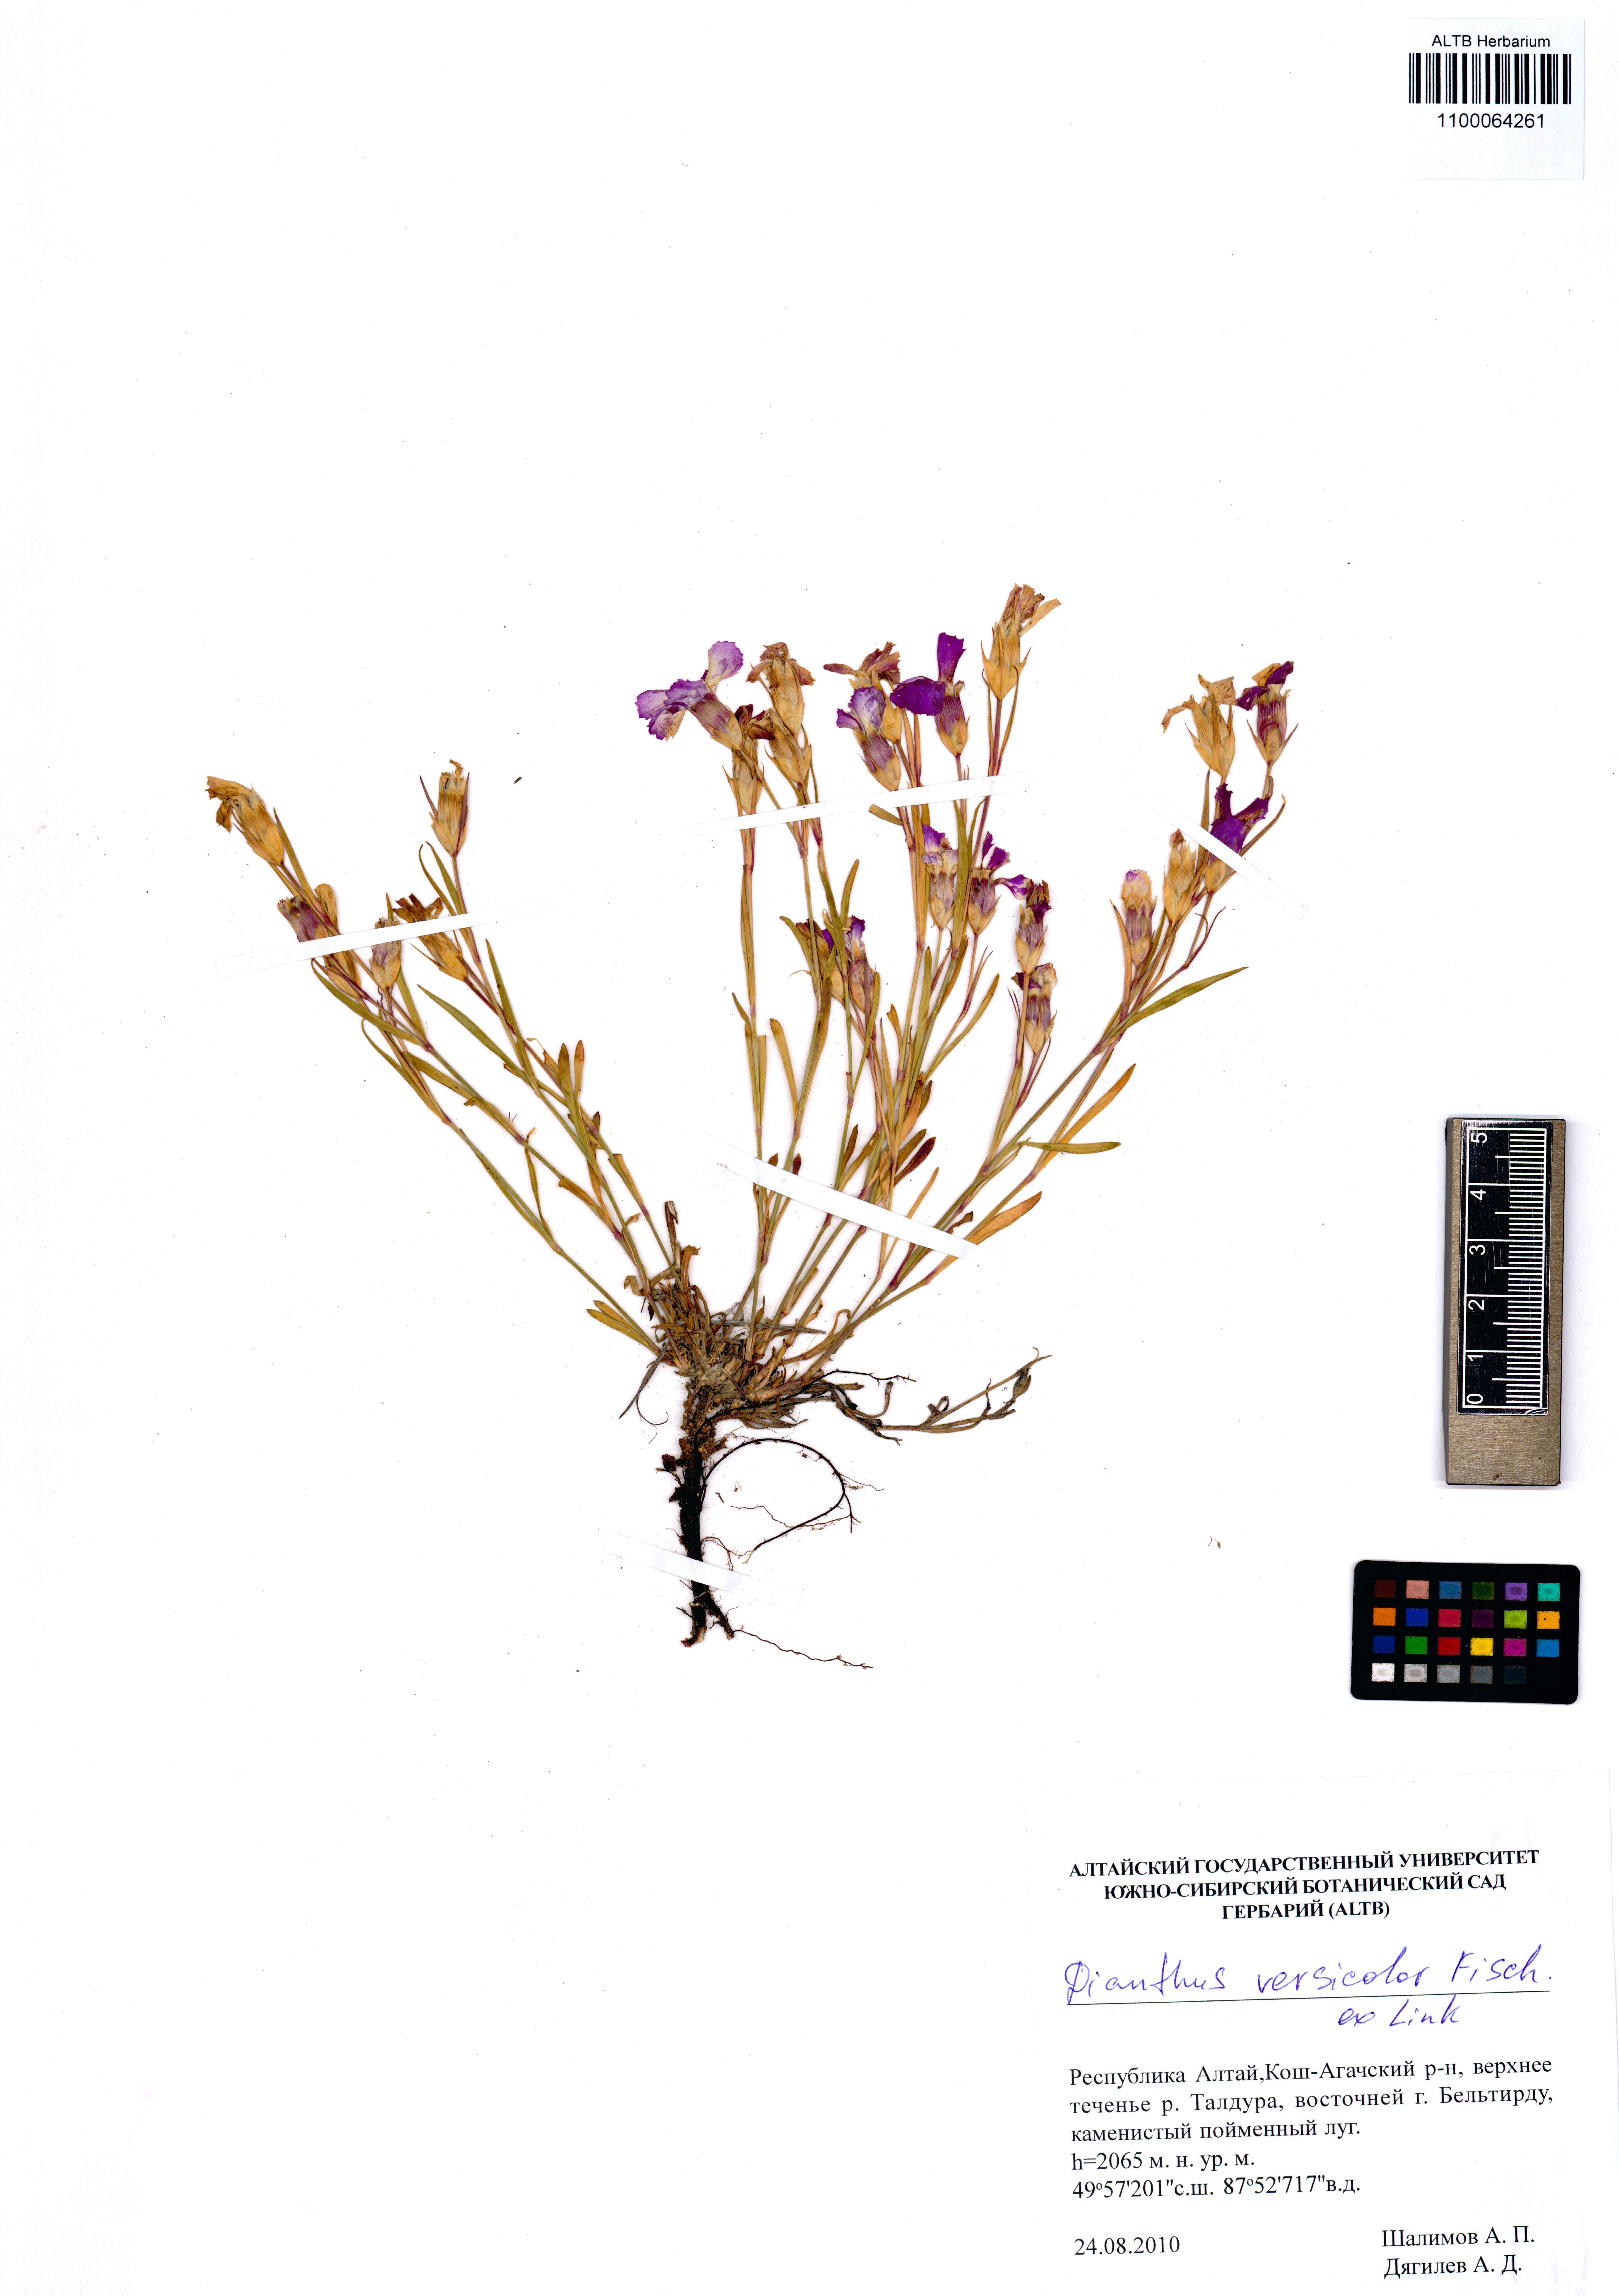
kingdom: Plantae
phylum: Tracheophyta
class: Magnoliopsida
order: Caryophyllales
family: Caryophyllaceae
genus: Dianthus
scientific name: Dianthus chinensis
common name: Rainbow pink
